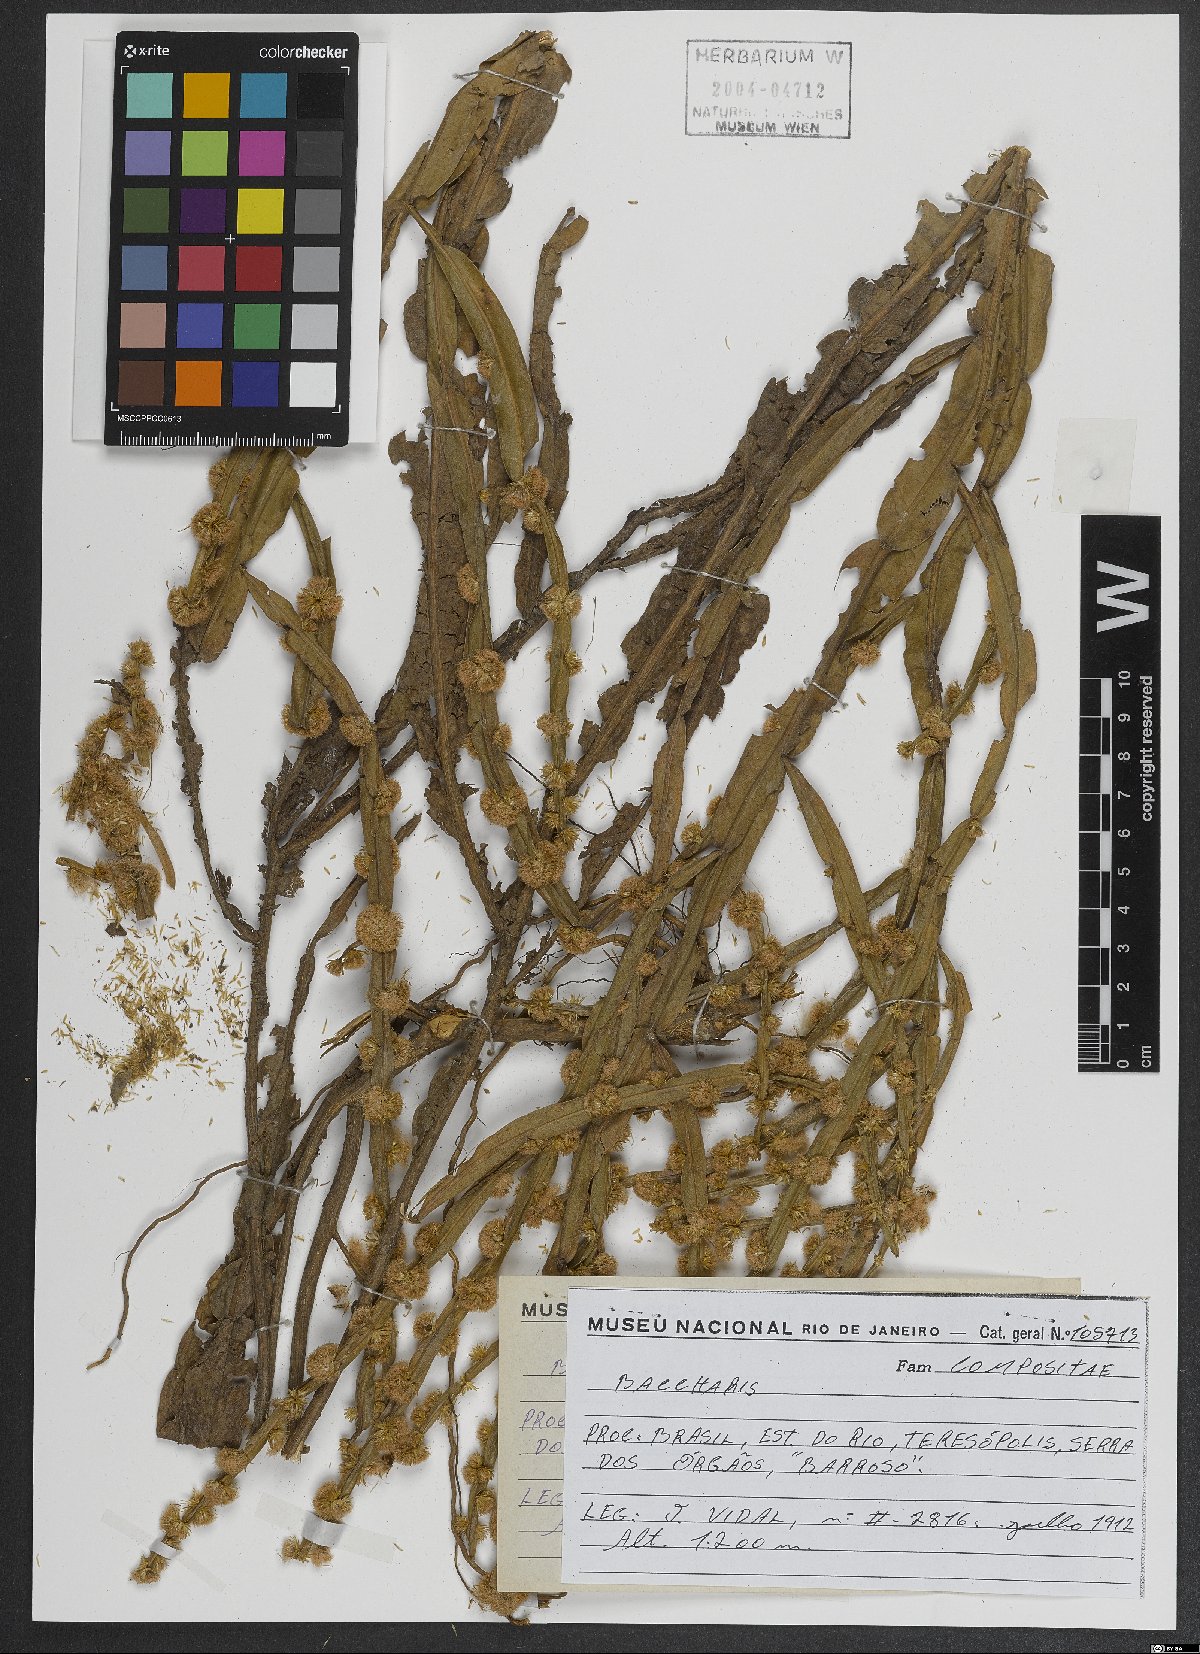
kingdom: Plantae
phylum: Tracheophyta
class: Magnoliopsida
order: Asterales
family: Asteraceae
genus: Baccharis
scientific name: Baccharis
